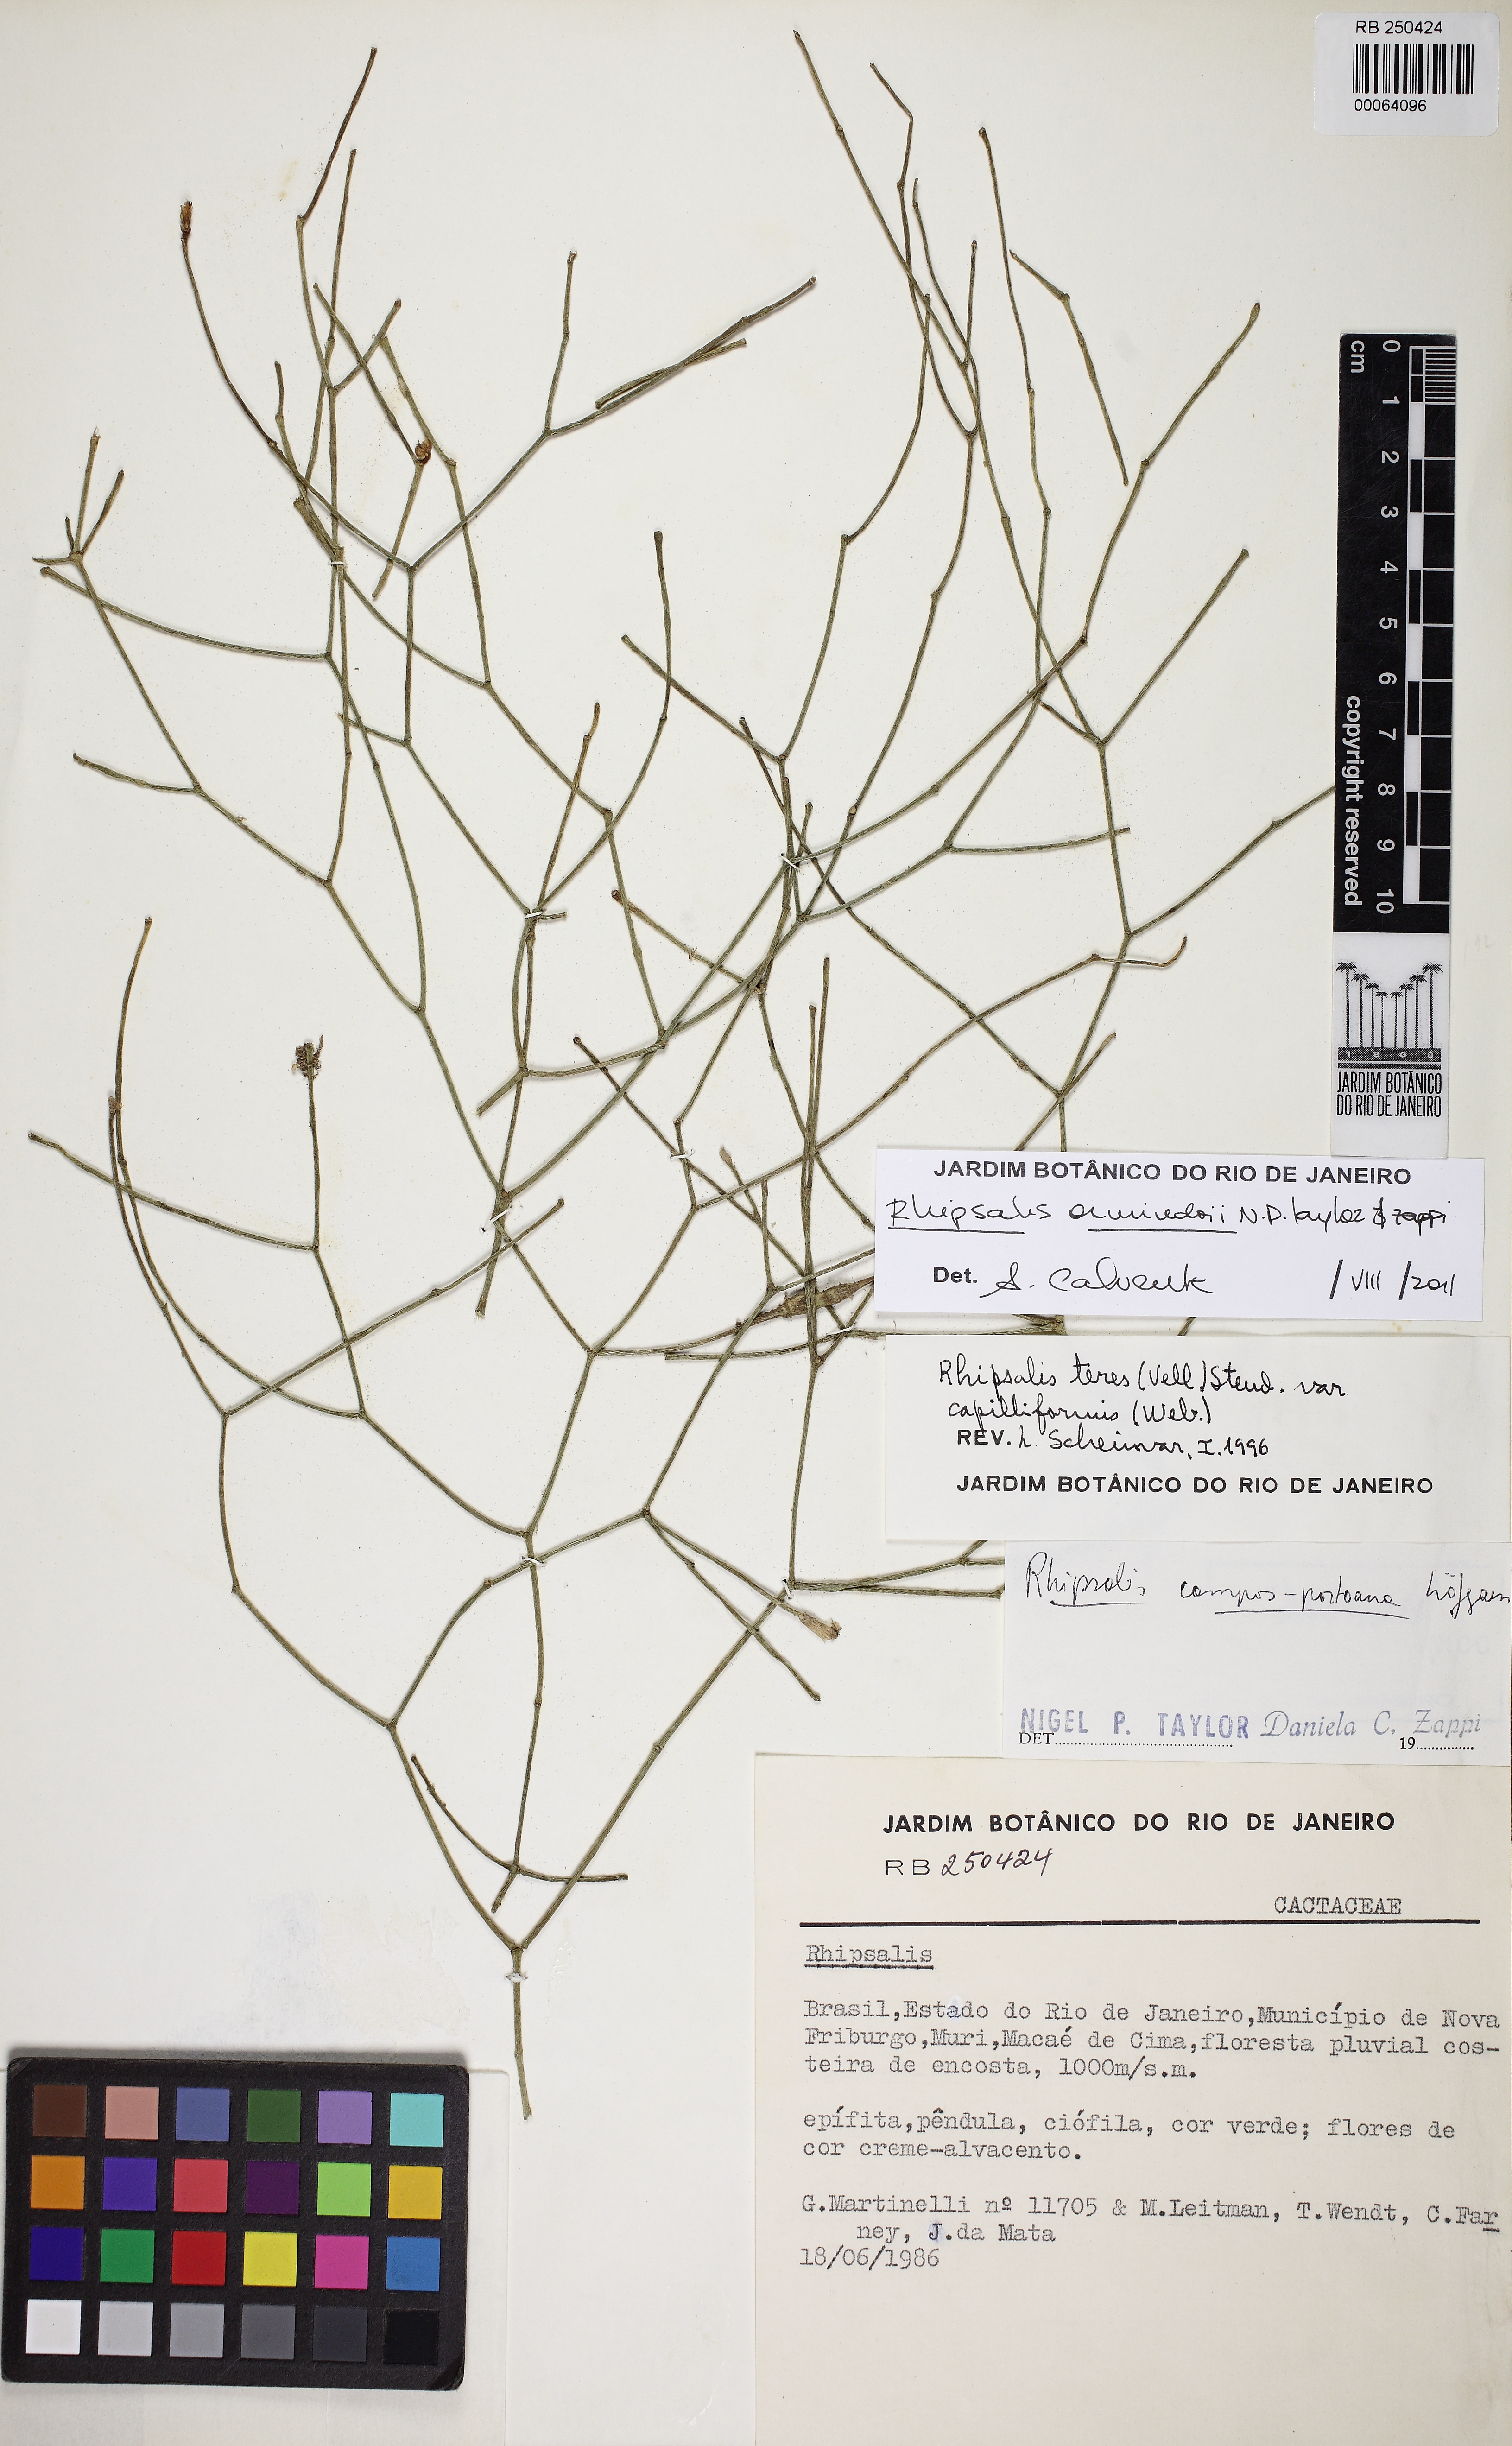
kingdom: Plantae
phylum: Tracheophyta
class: Magnoliopsida
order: Caryophyllales
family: Cactaceae
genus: Rhipsalis
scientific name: Rhipsalis juengeri
